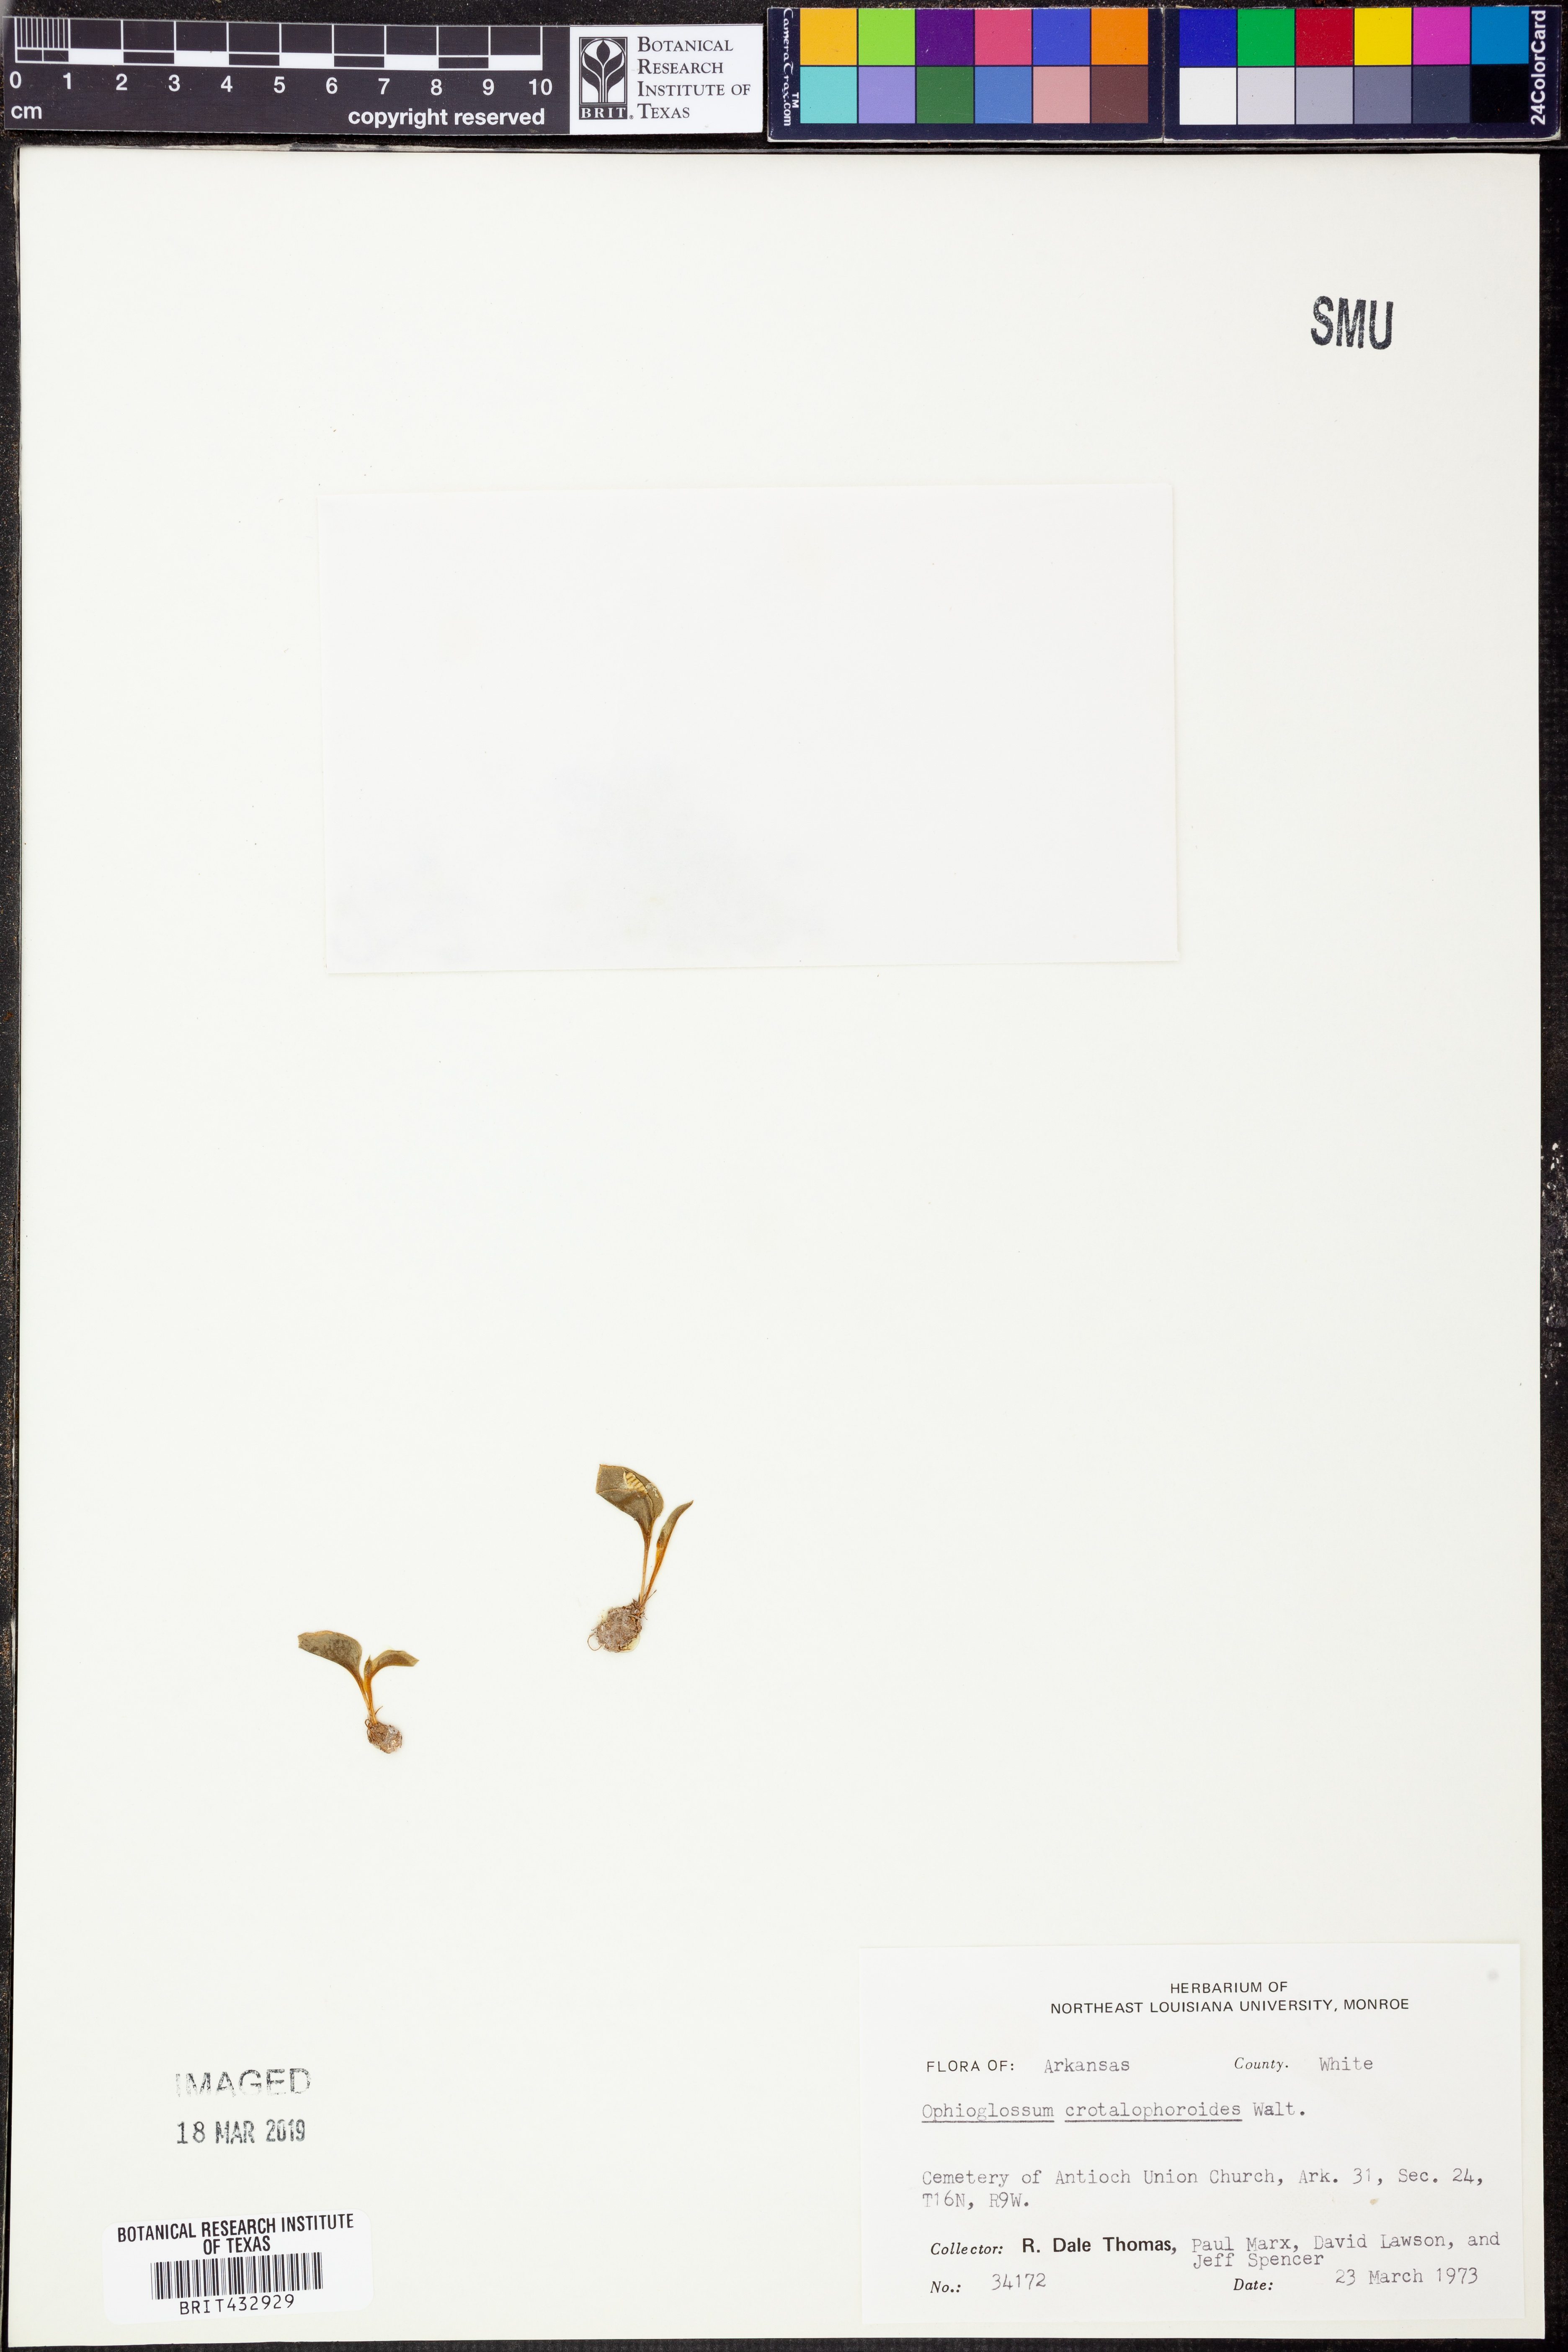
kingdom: Plantae
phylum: Tracheophyta
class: Polypodiopsida
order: Ophioglossales
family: Ophioglossaceae
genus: Ophioglossum
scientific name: Ophioglossum crotalophoroides
